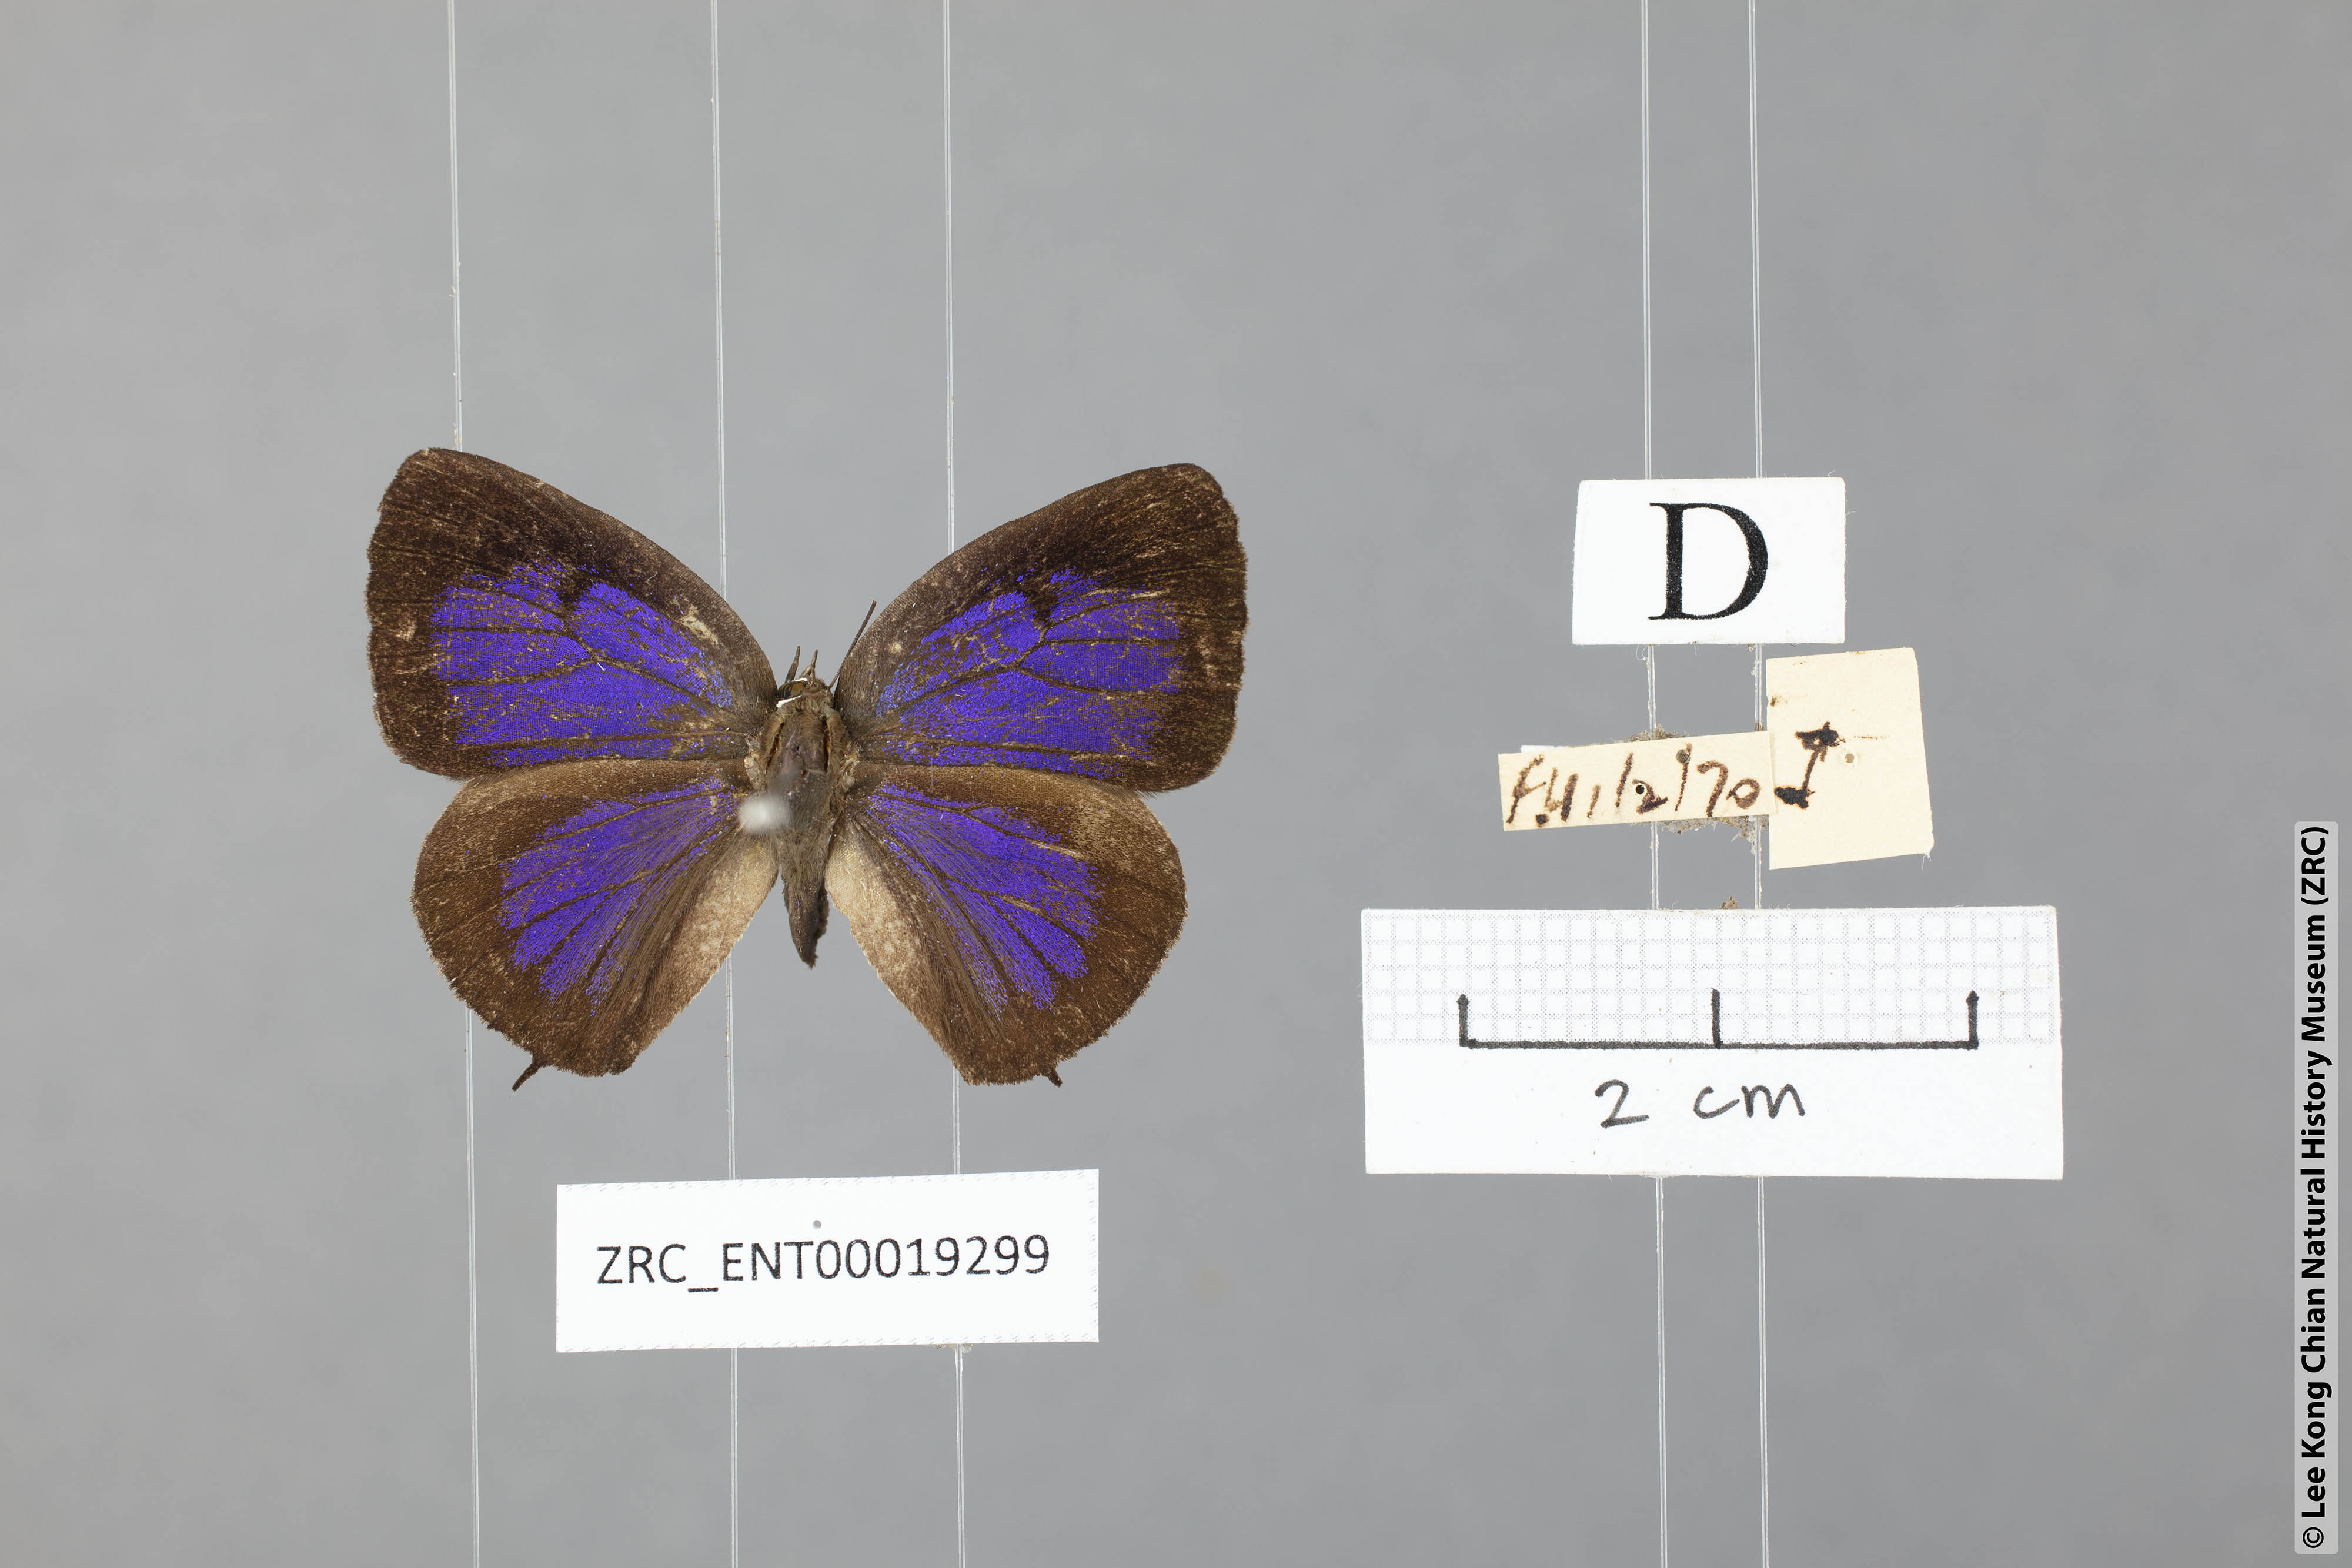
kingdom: Animalia
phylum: Arthropoda
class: Insecta
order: Lepidoptera
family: Lycaenidae
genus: Arhopala
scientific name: Arhopala azinis
